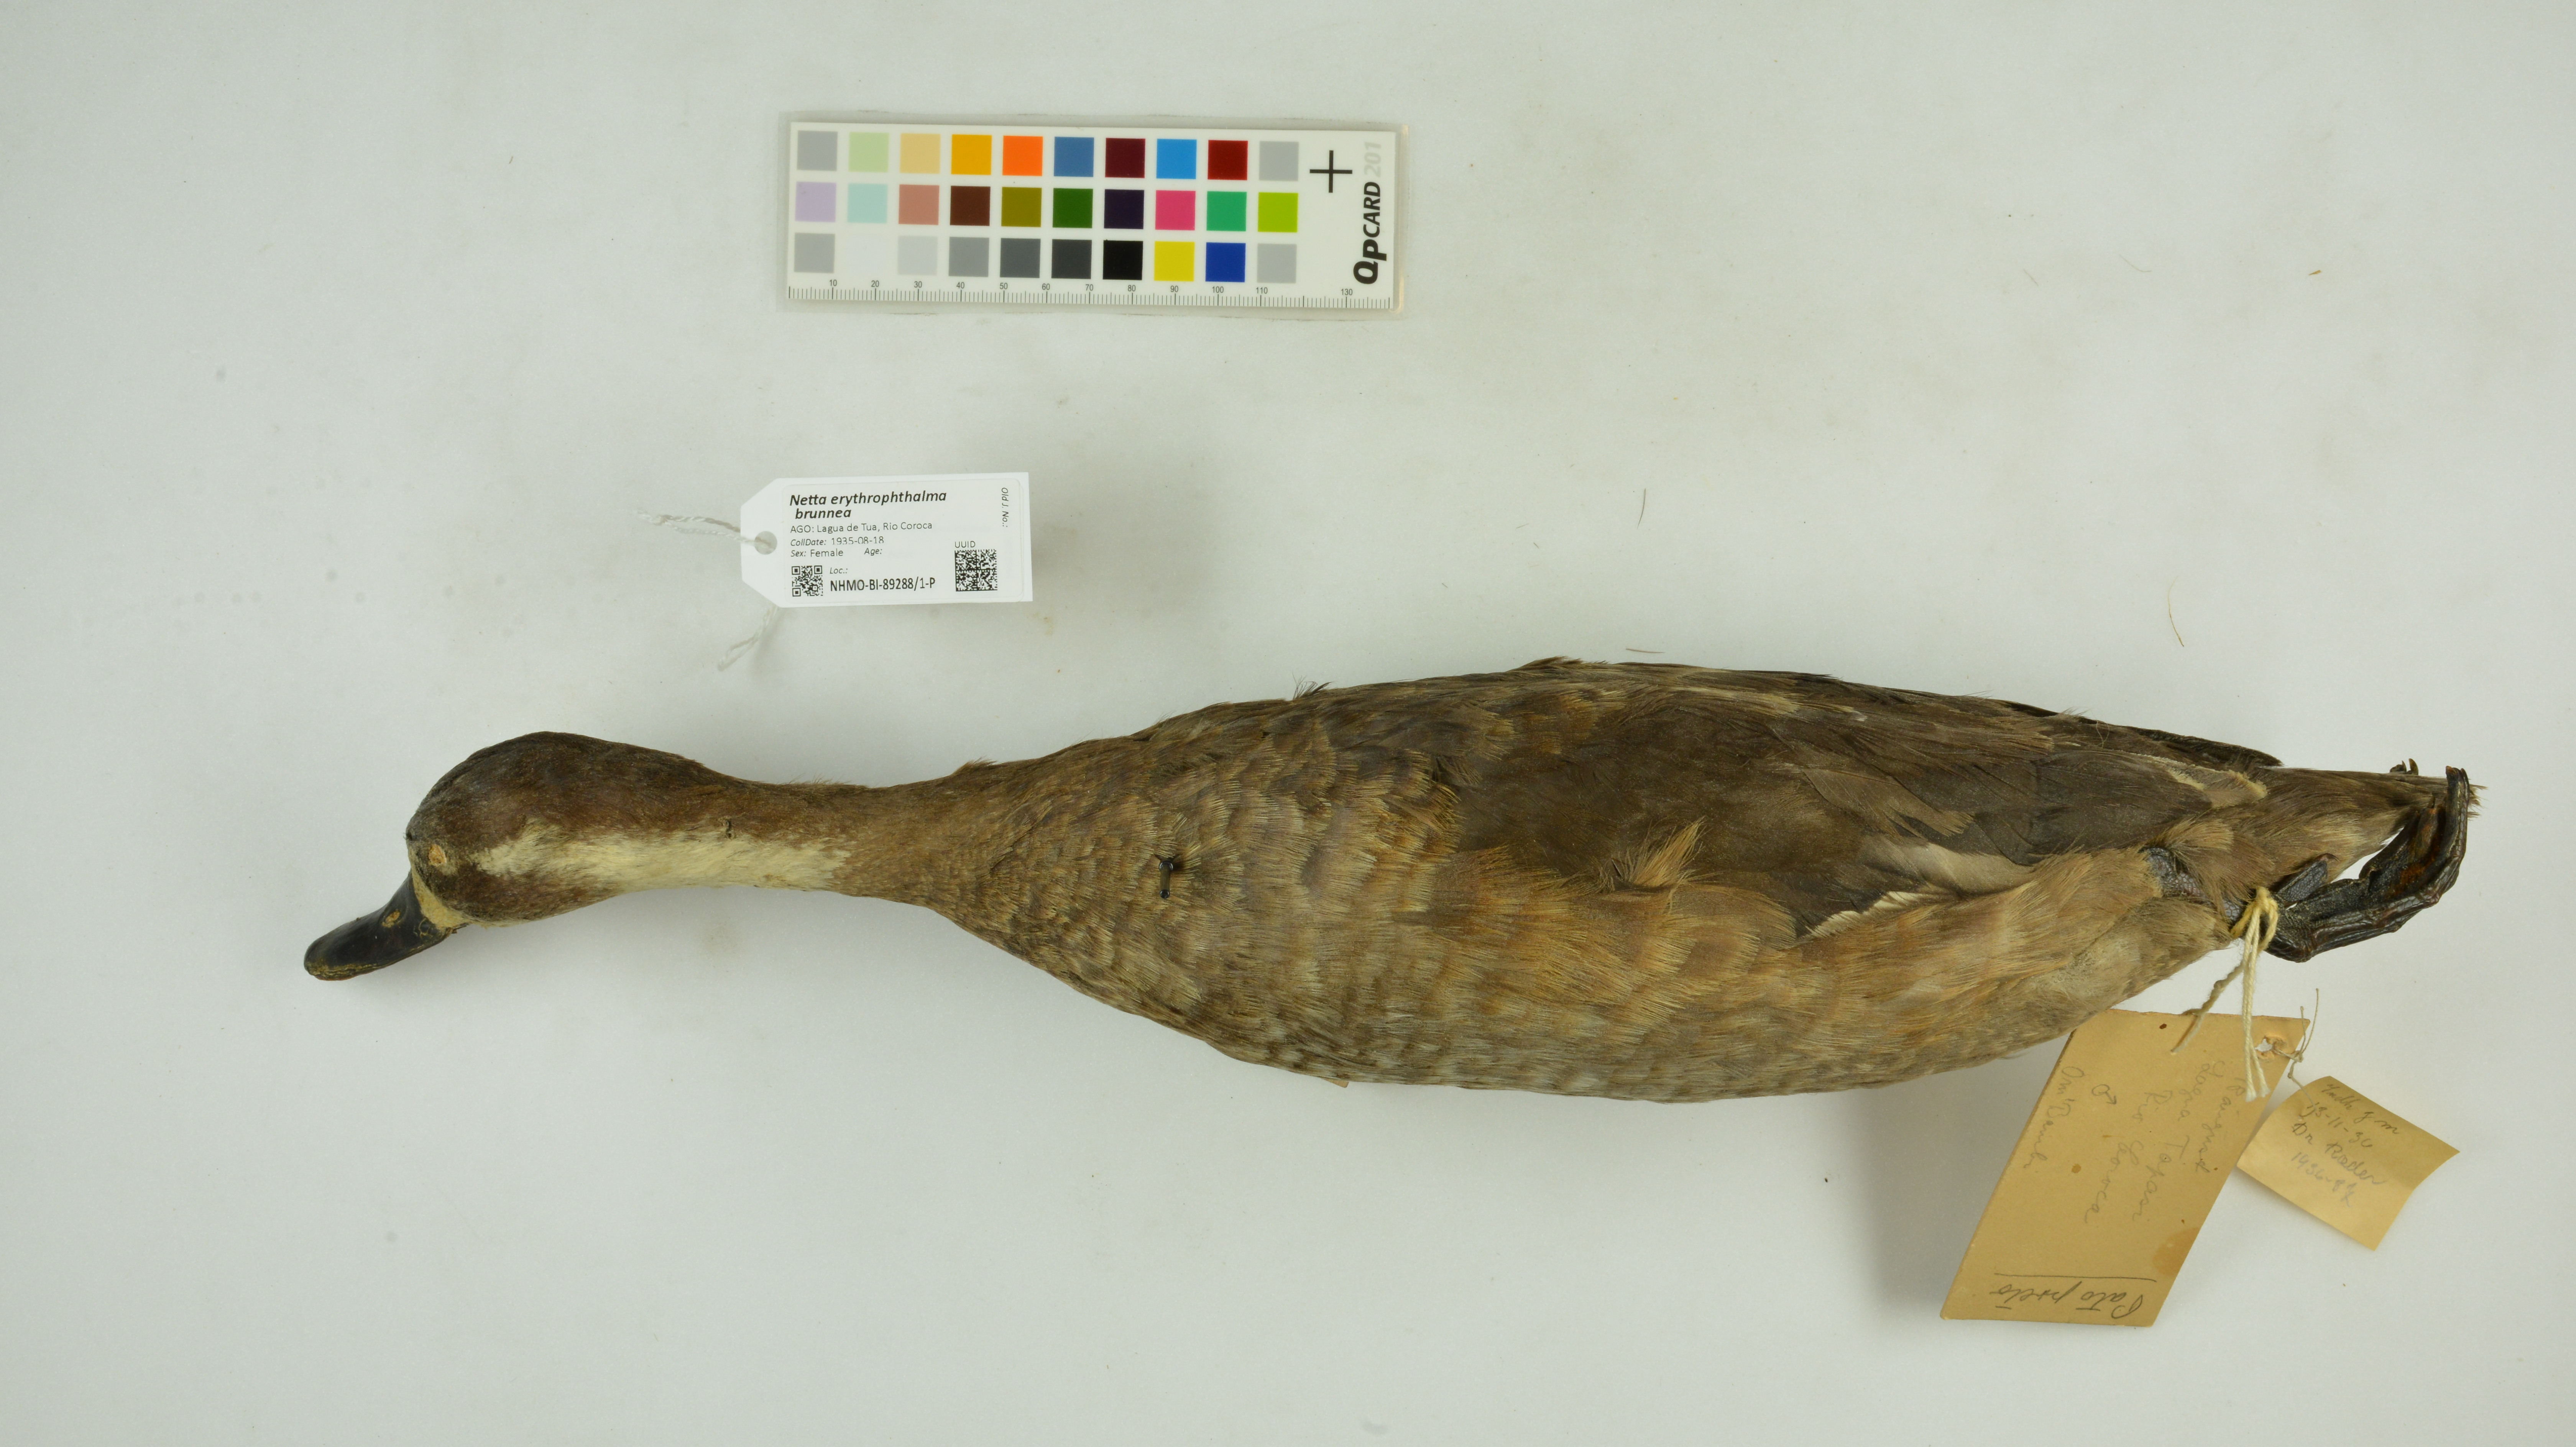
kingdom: Animalia
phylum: Chordata
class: Aves
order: Anseriformes
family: Anatidae
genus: Netta
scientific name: Netta erythrophthalma
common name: Southern pochard
